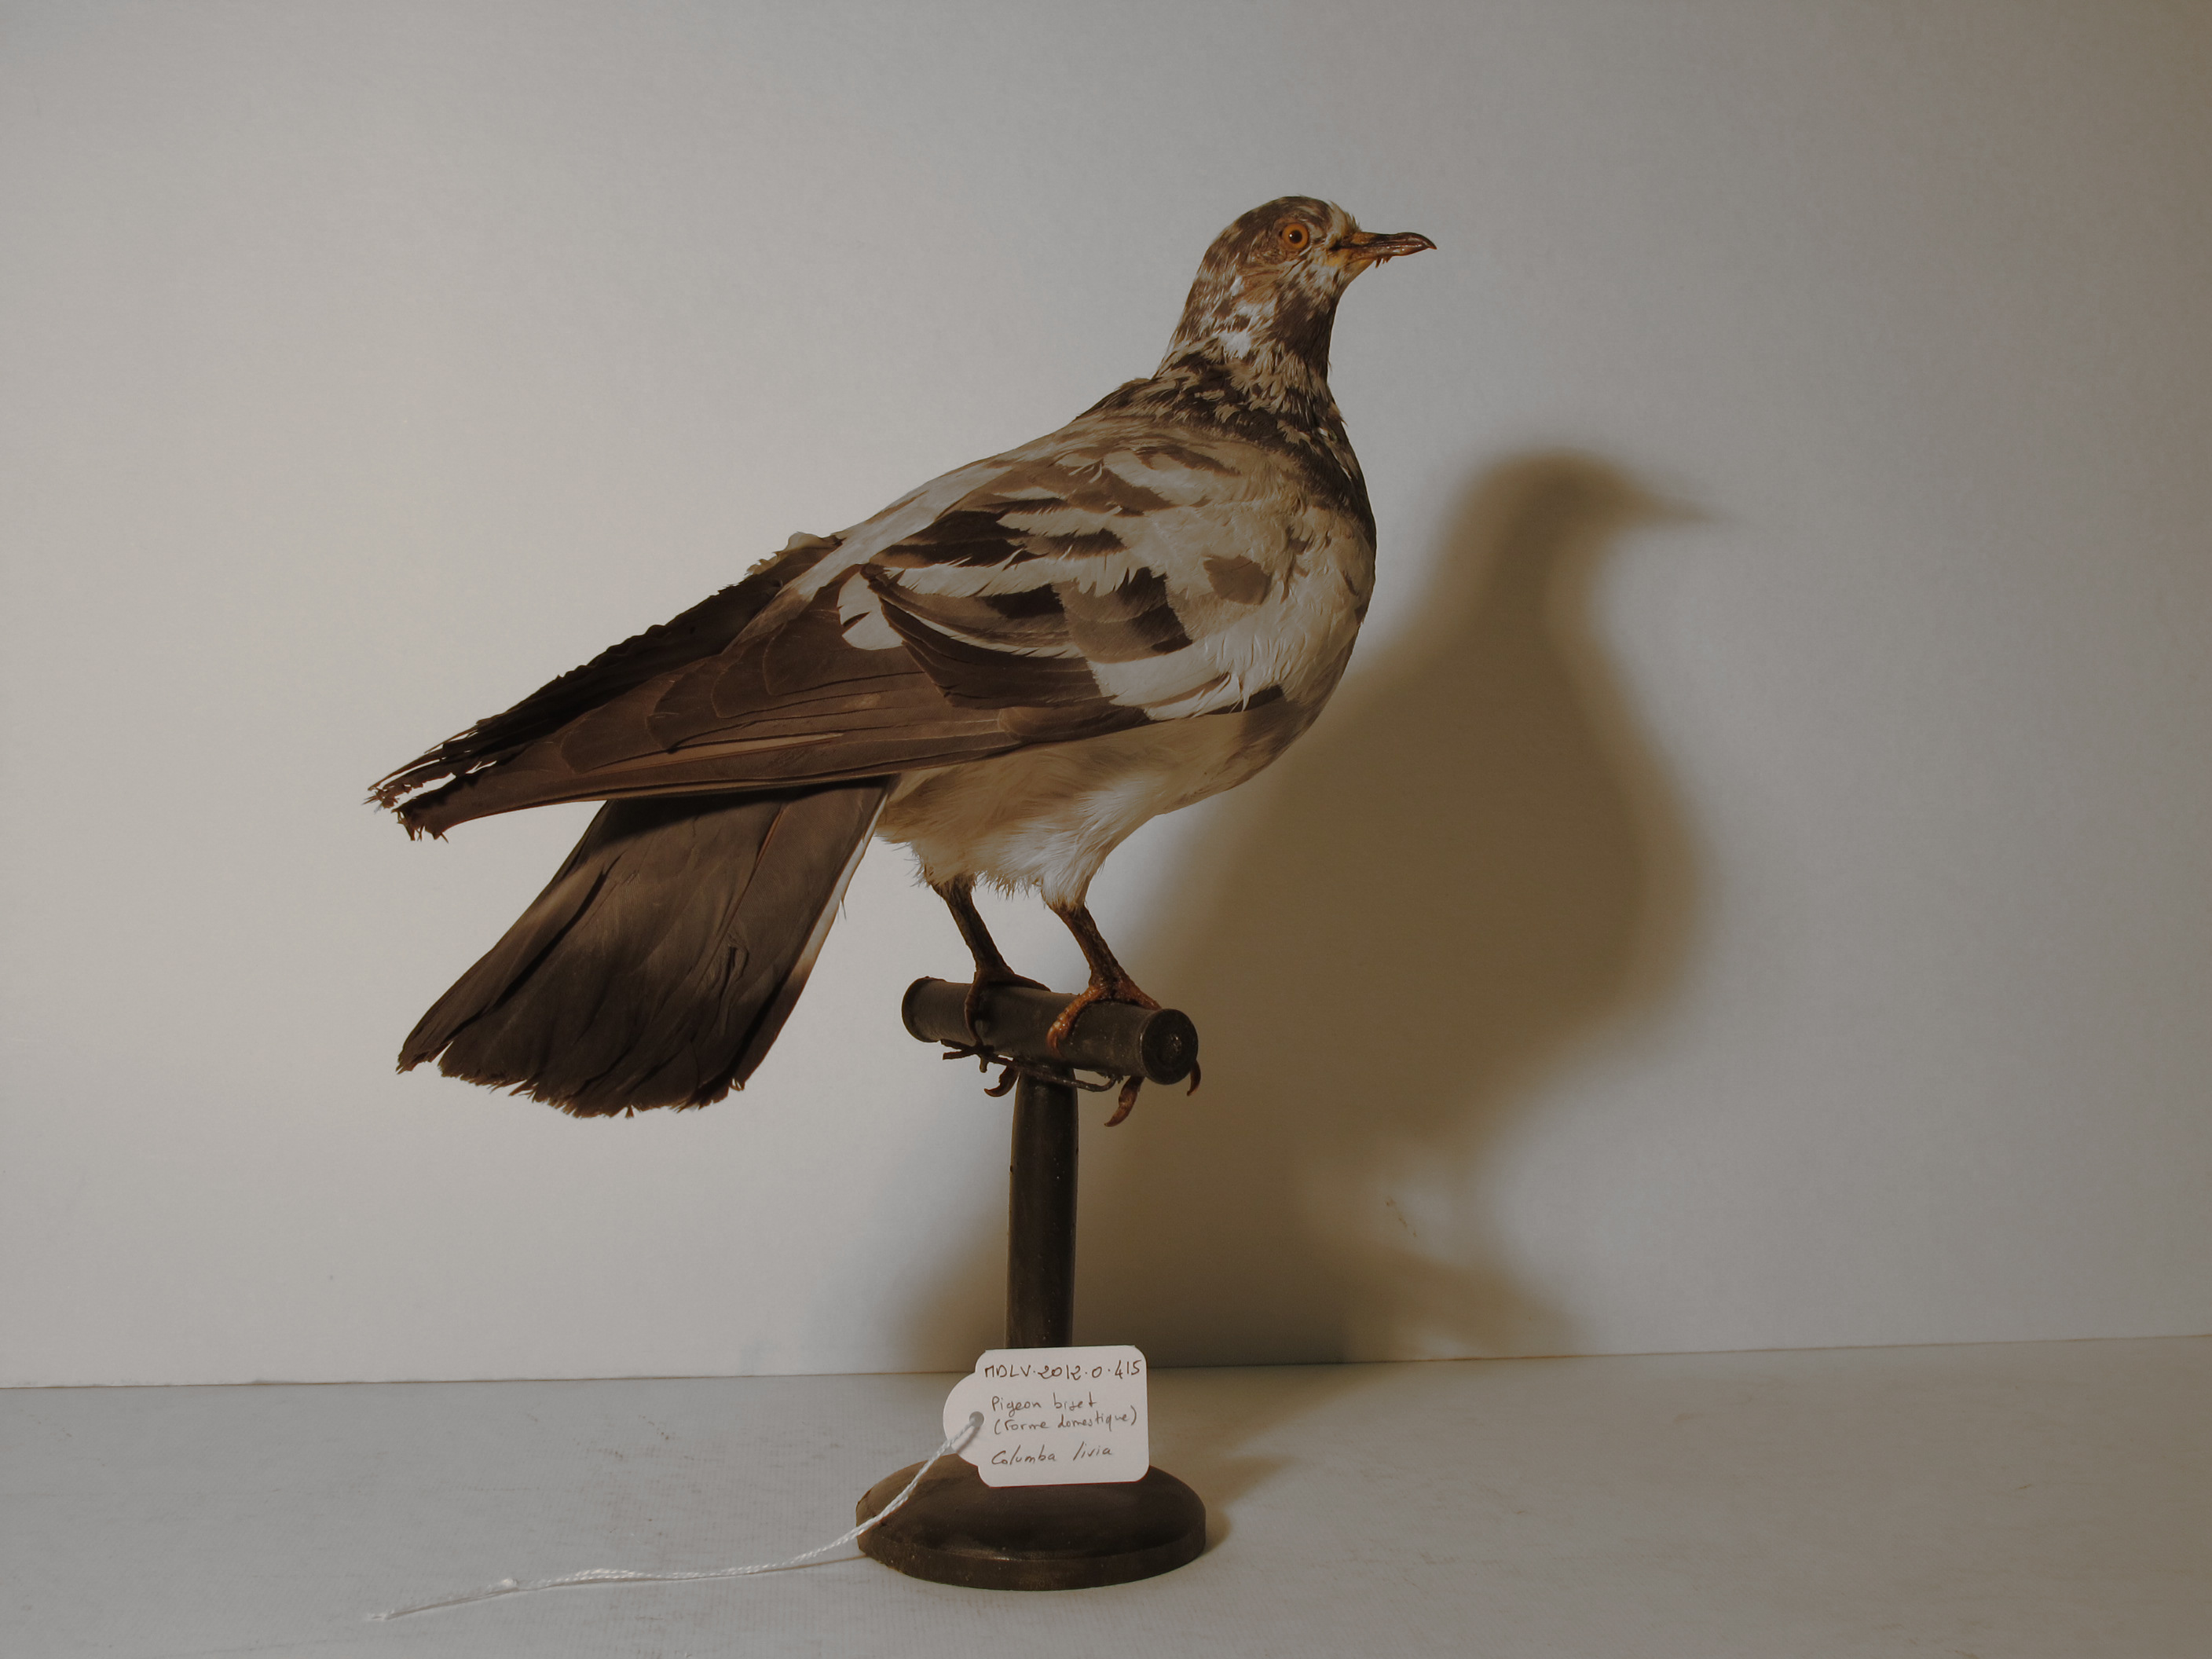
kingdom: Animalia
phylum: Chordata
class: Aves
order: Columbiformes
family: Columbidae
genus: Columba
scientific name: Columba livia
